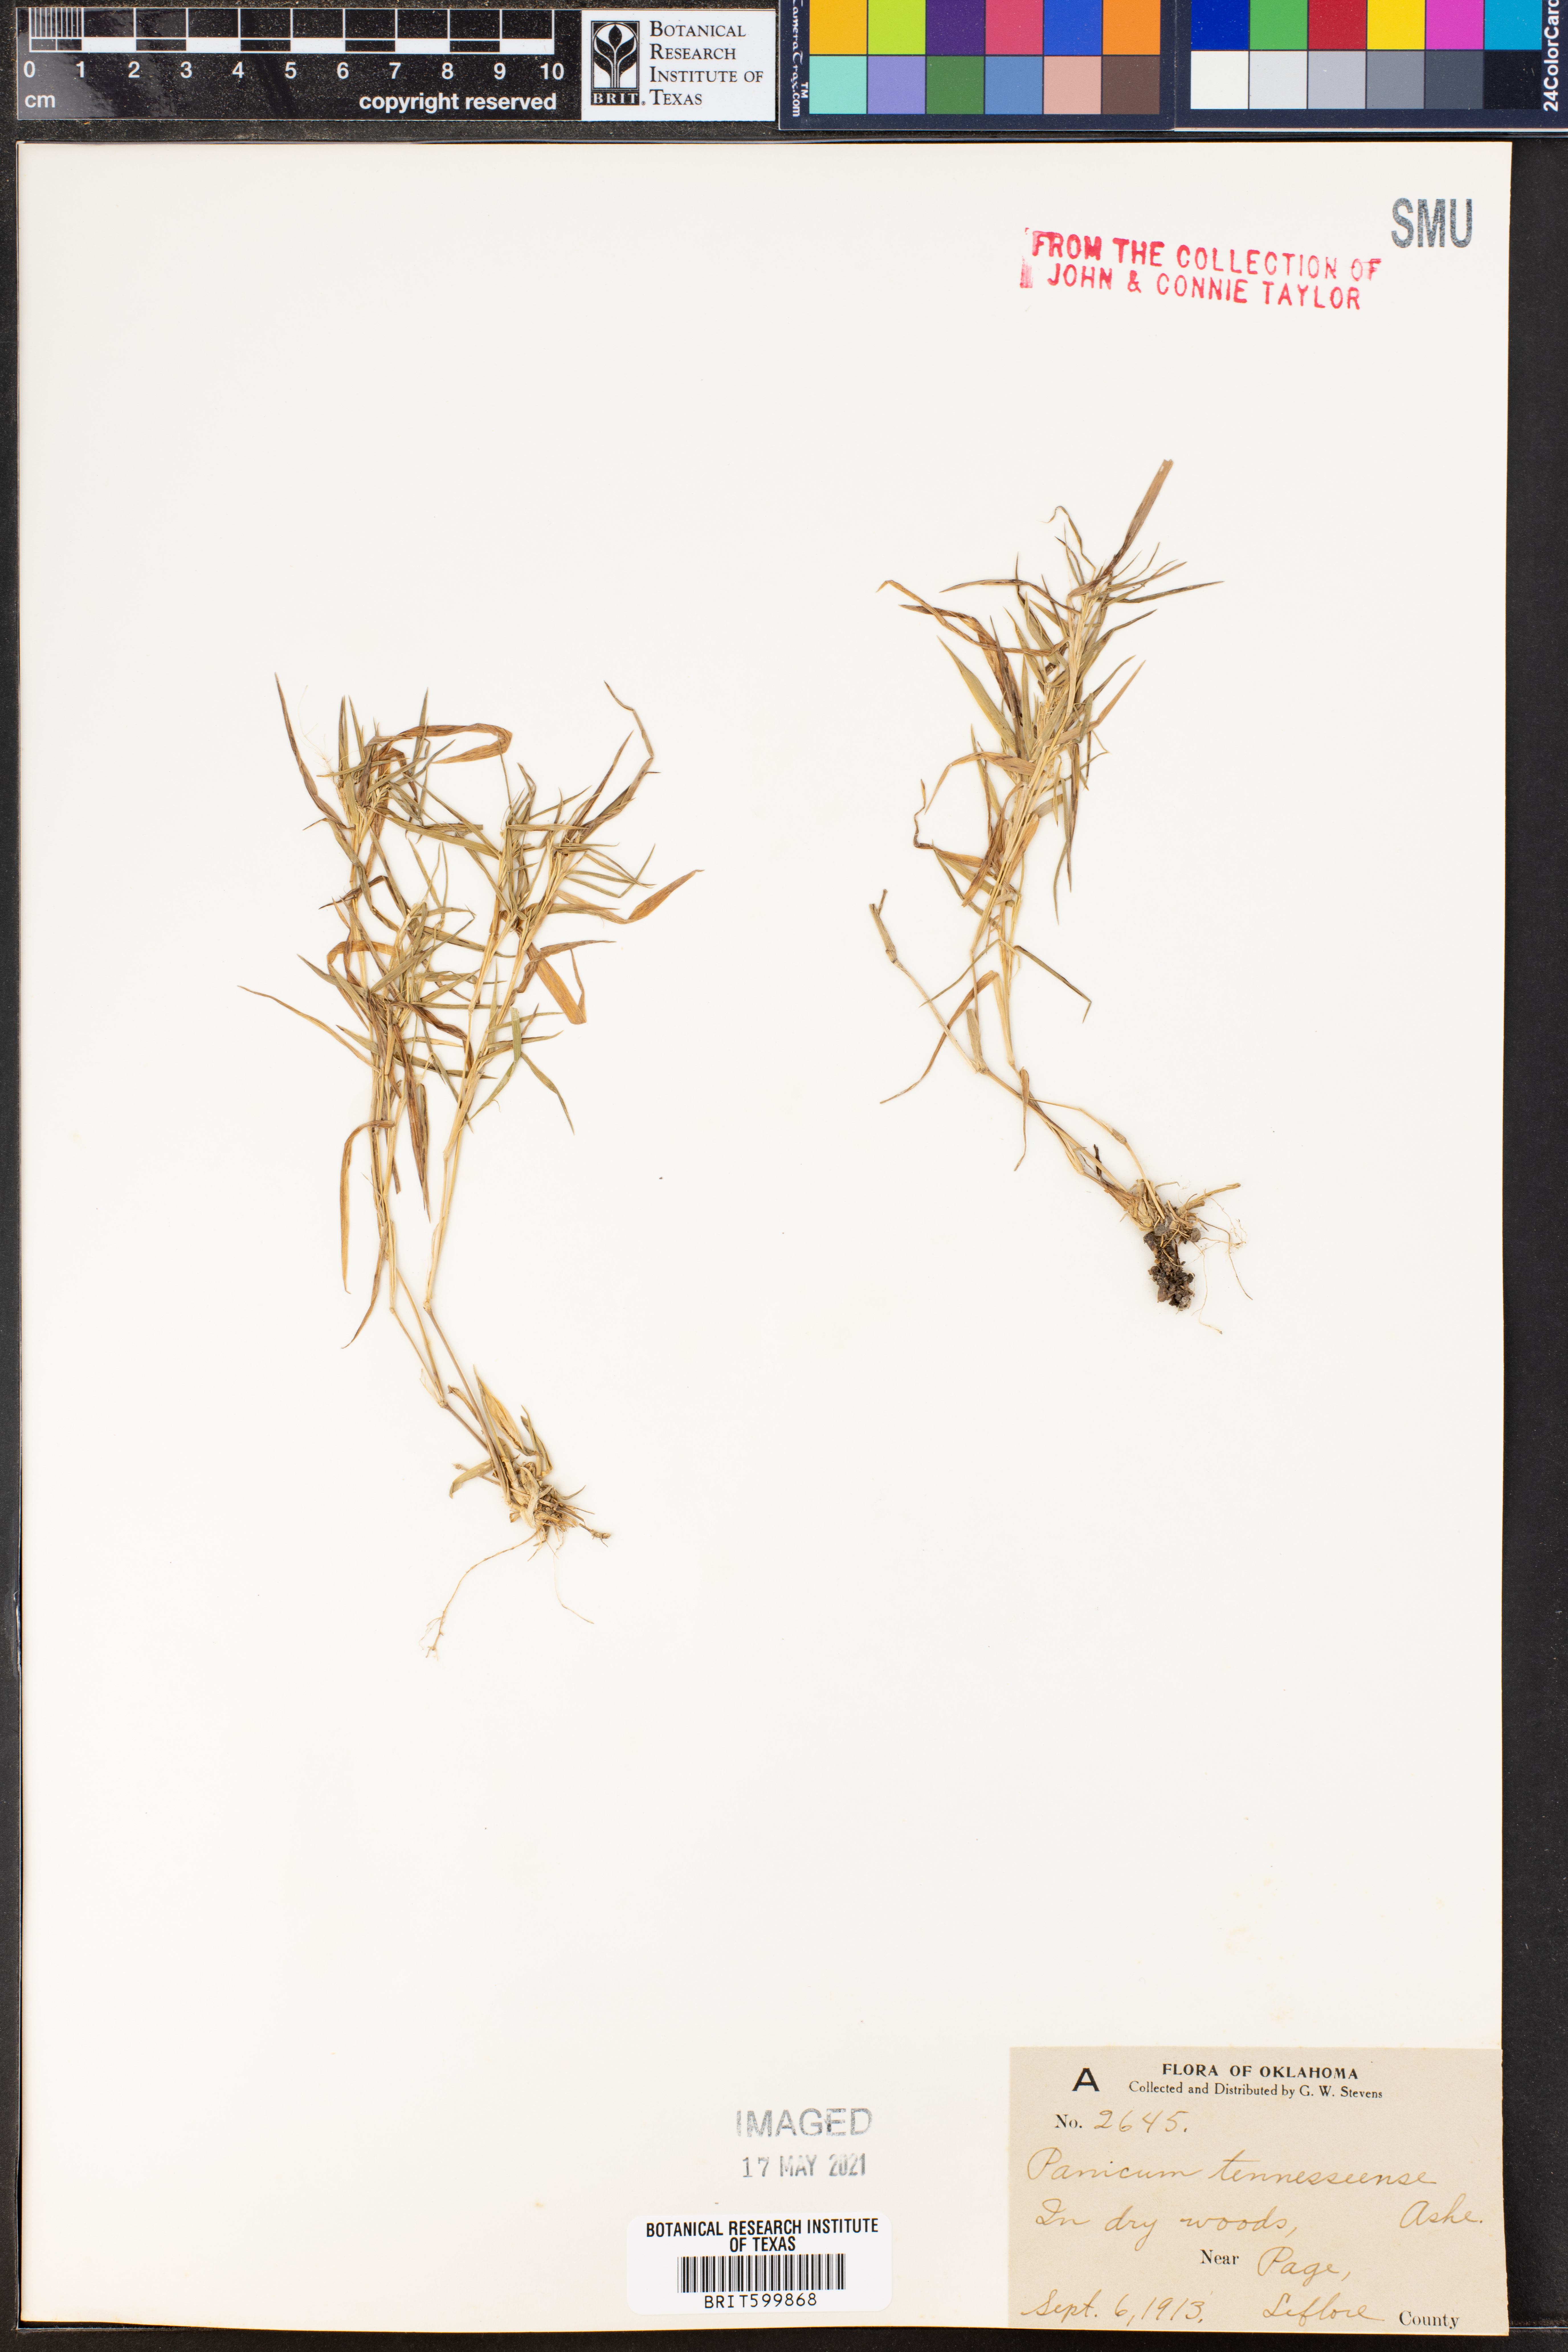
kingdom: Plantae
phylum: Tracheophyta
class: Liliopsida
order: Poales
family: Poaceae
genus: Dichanthelium
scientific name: Dichanthelium lanuginosum
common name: Woolly panicgrass
